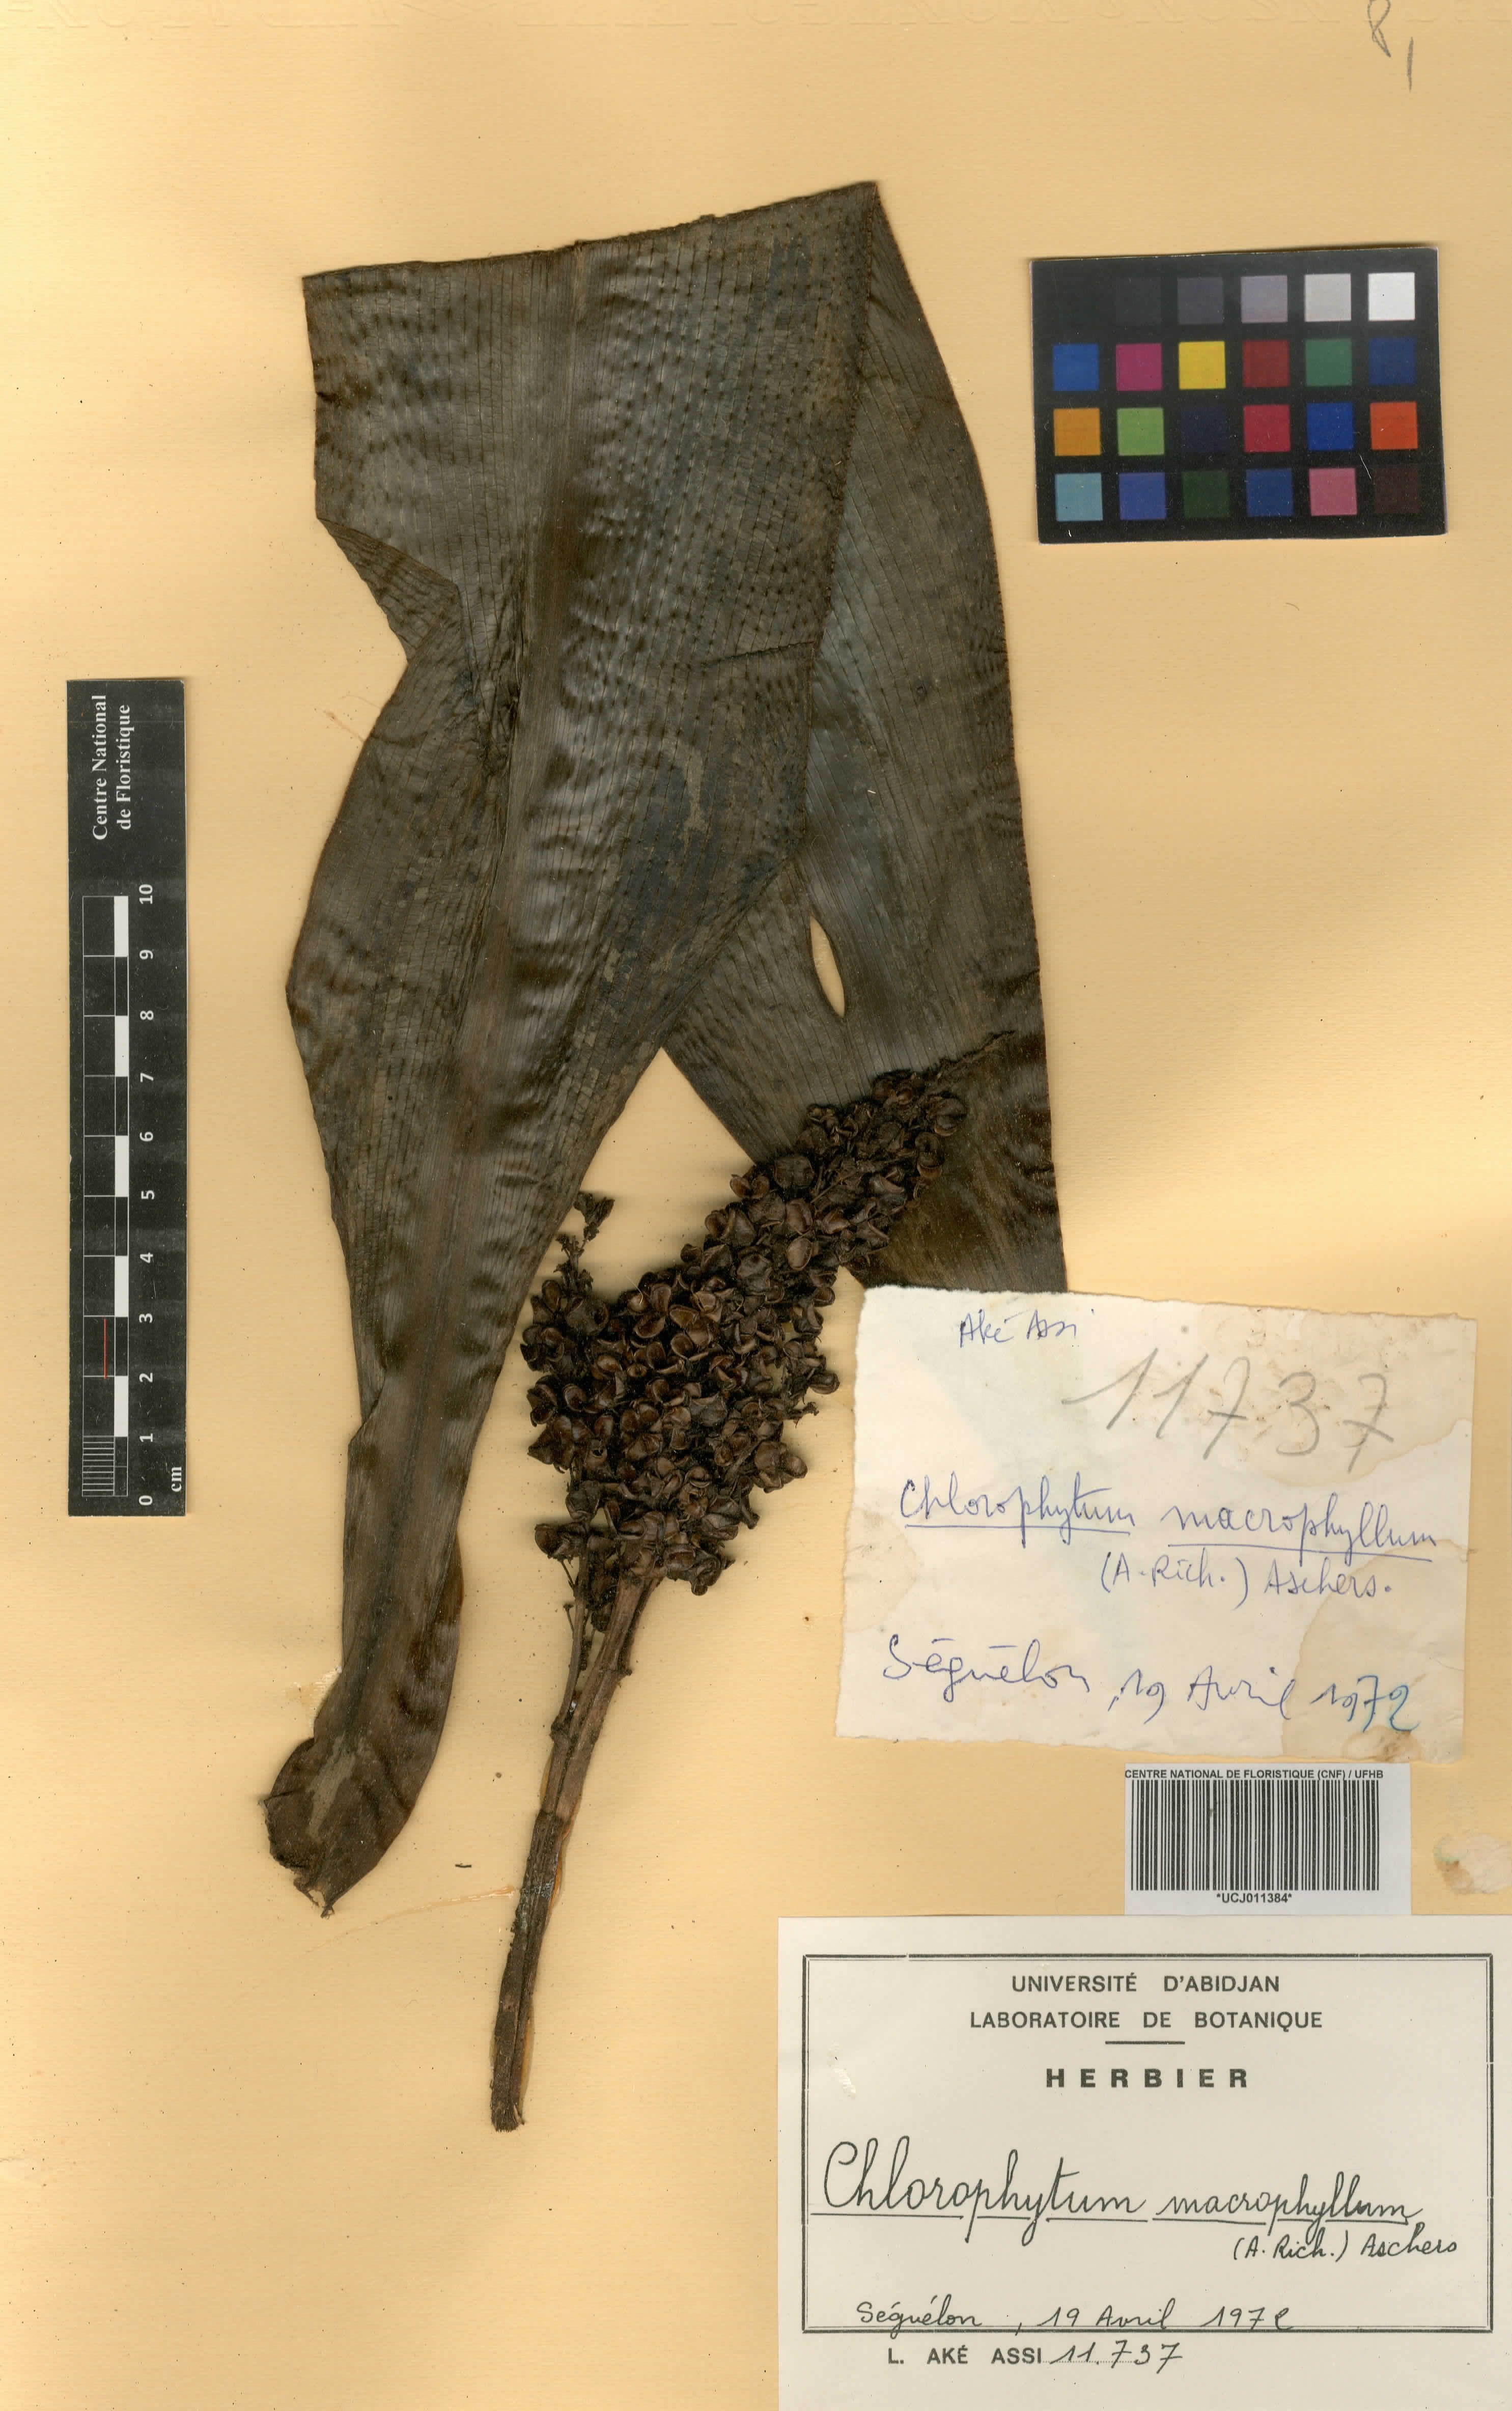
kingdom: Plantae
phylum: Tracheophyta
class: Liliopsida
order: Asparagales
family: Asparagaceae
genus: Chlorophytum
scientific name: Chlorophytum macrophyllum
